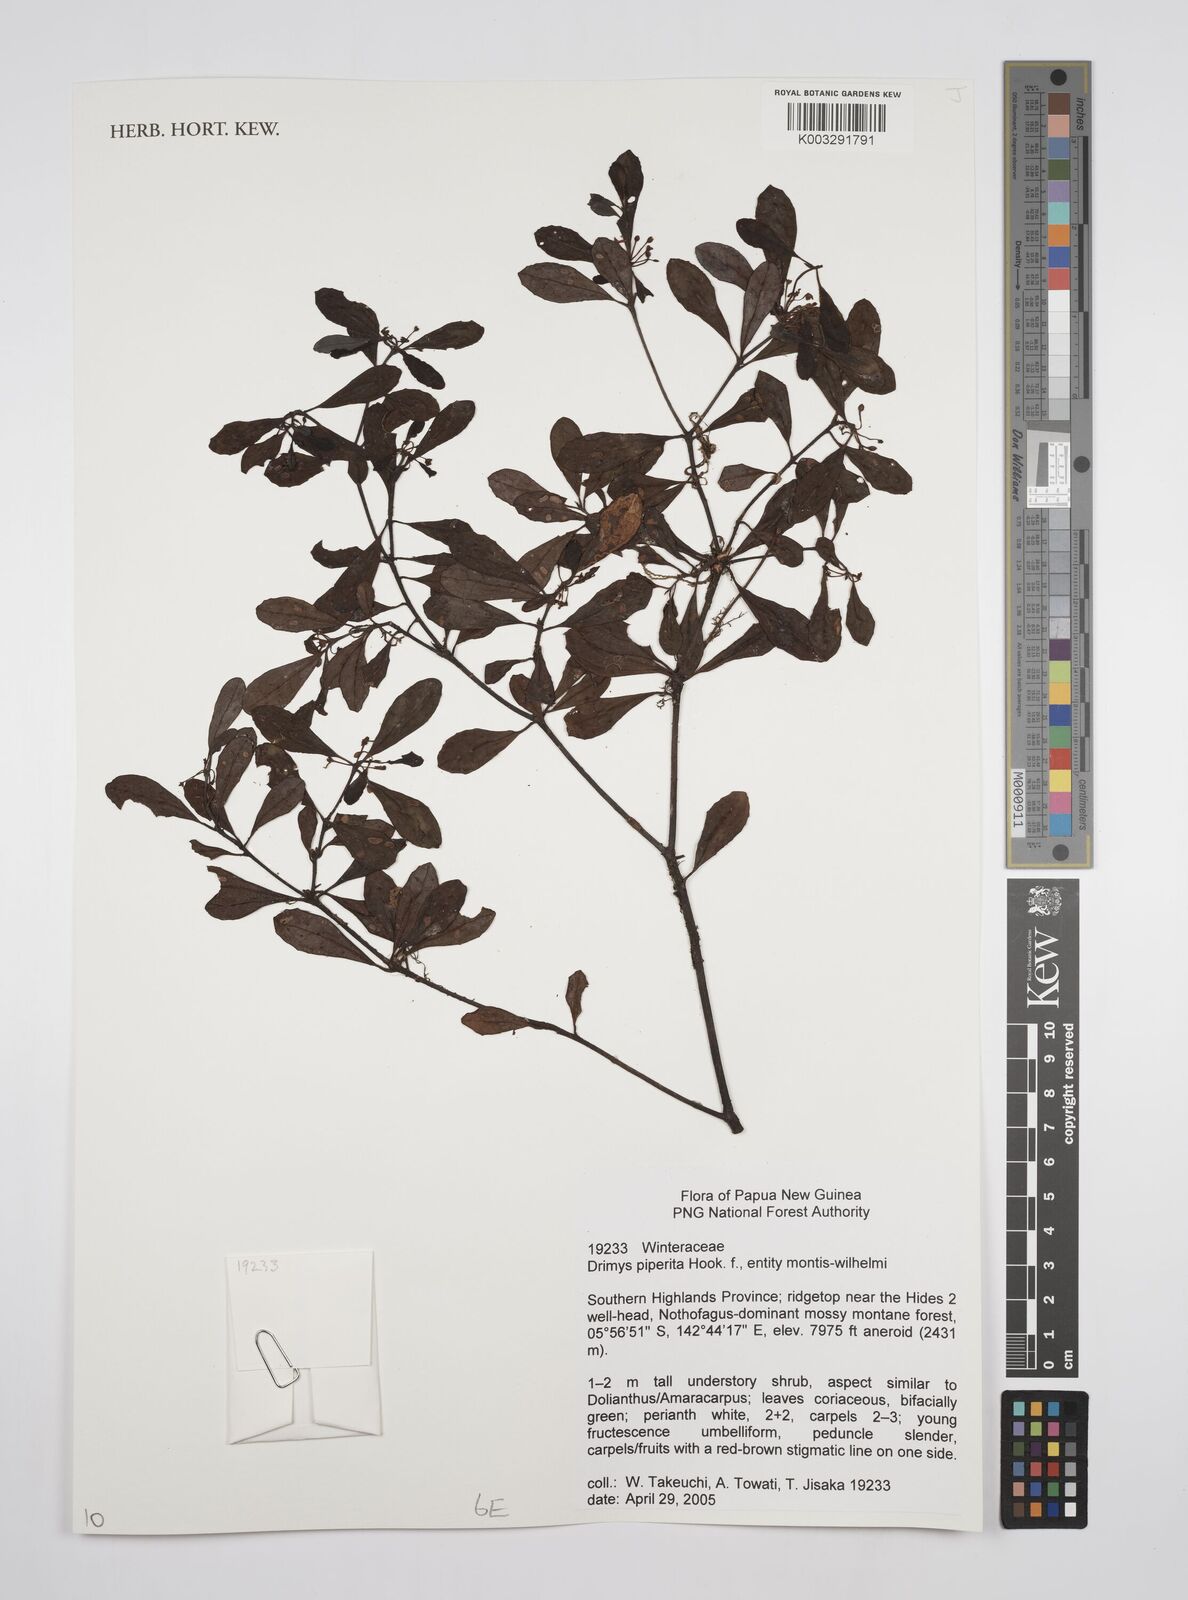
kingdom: Plantae
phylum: Tracheophyta
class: Magnoliopsida
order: Canellales
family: Winteraceae
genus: Drimys
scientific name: Drimys piperita
